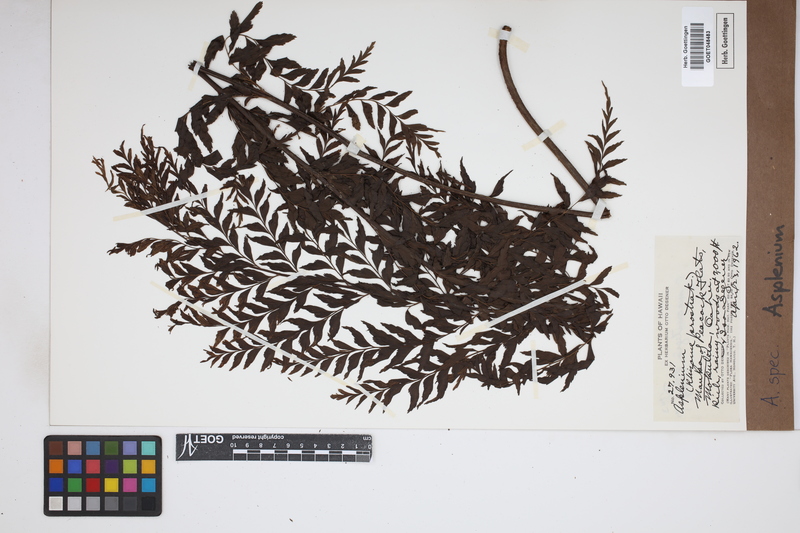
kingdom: Plantae
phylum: Tracheophyta
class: Polypodiopsida
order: Polypodiales
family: Aspleniaceae
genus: Asplenium
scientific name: Asplenium
